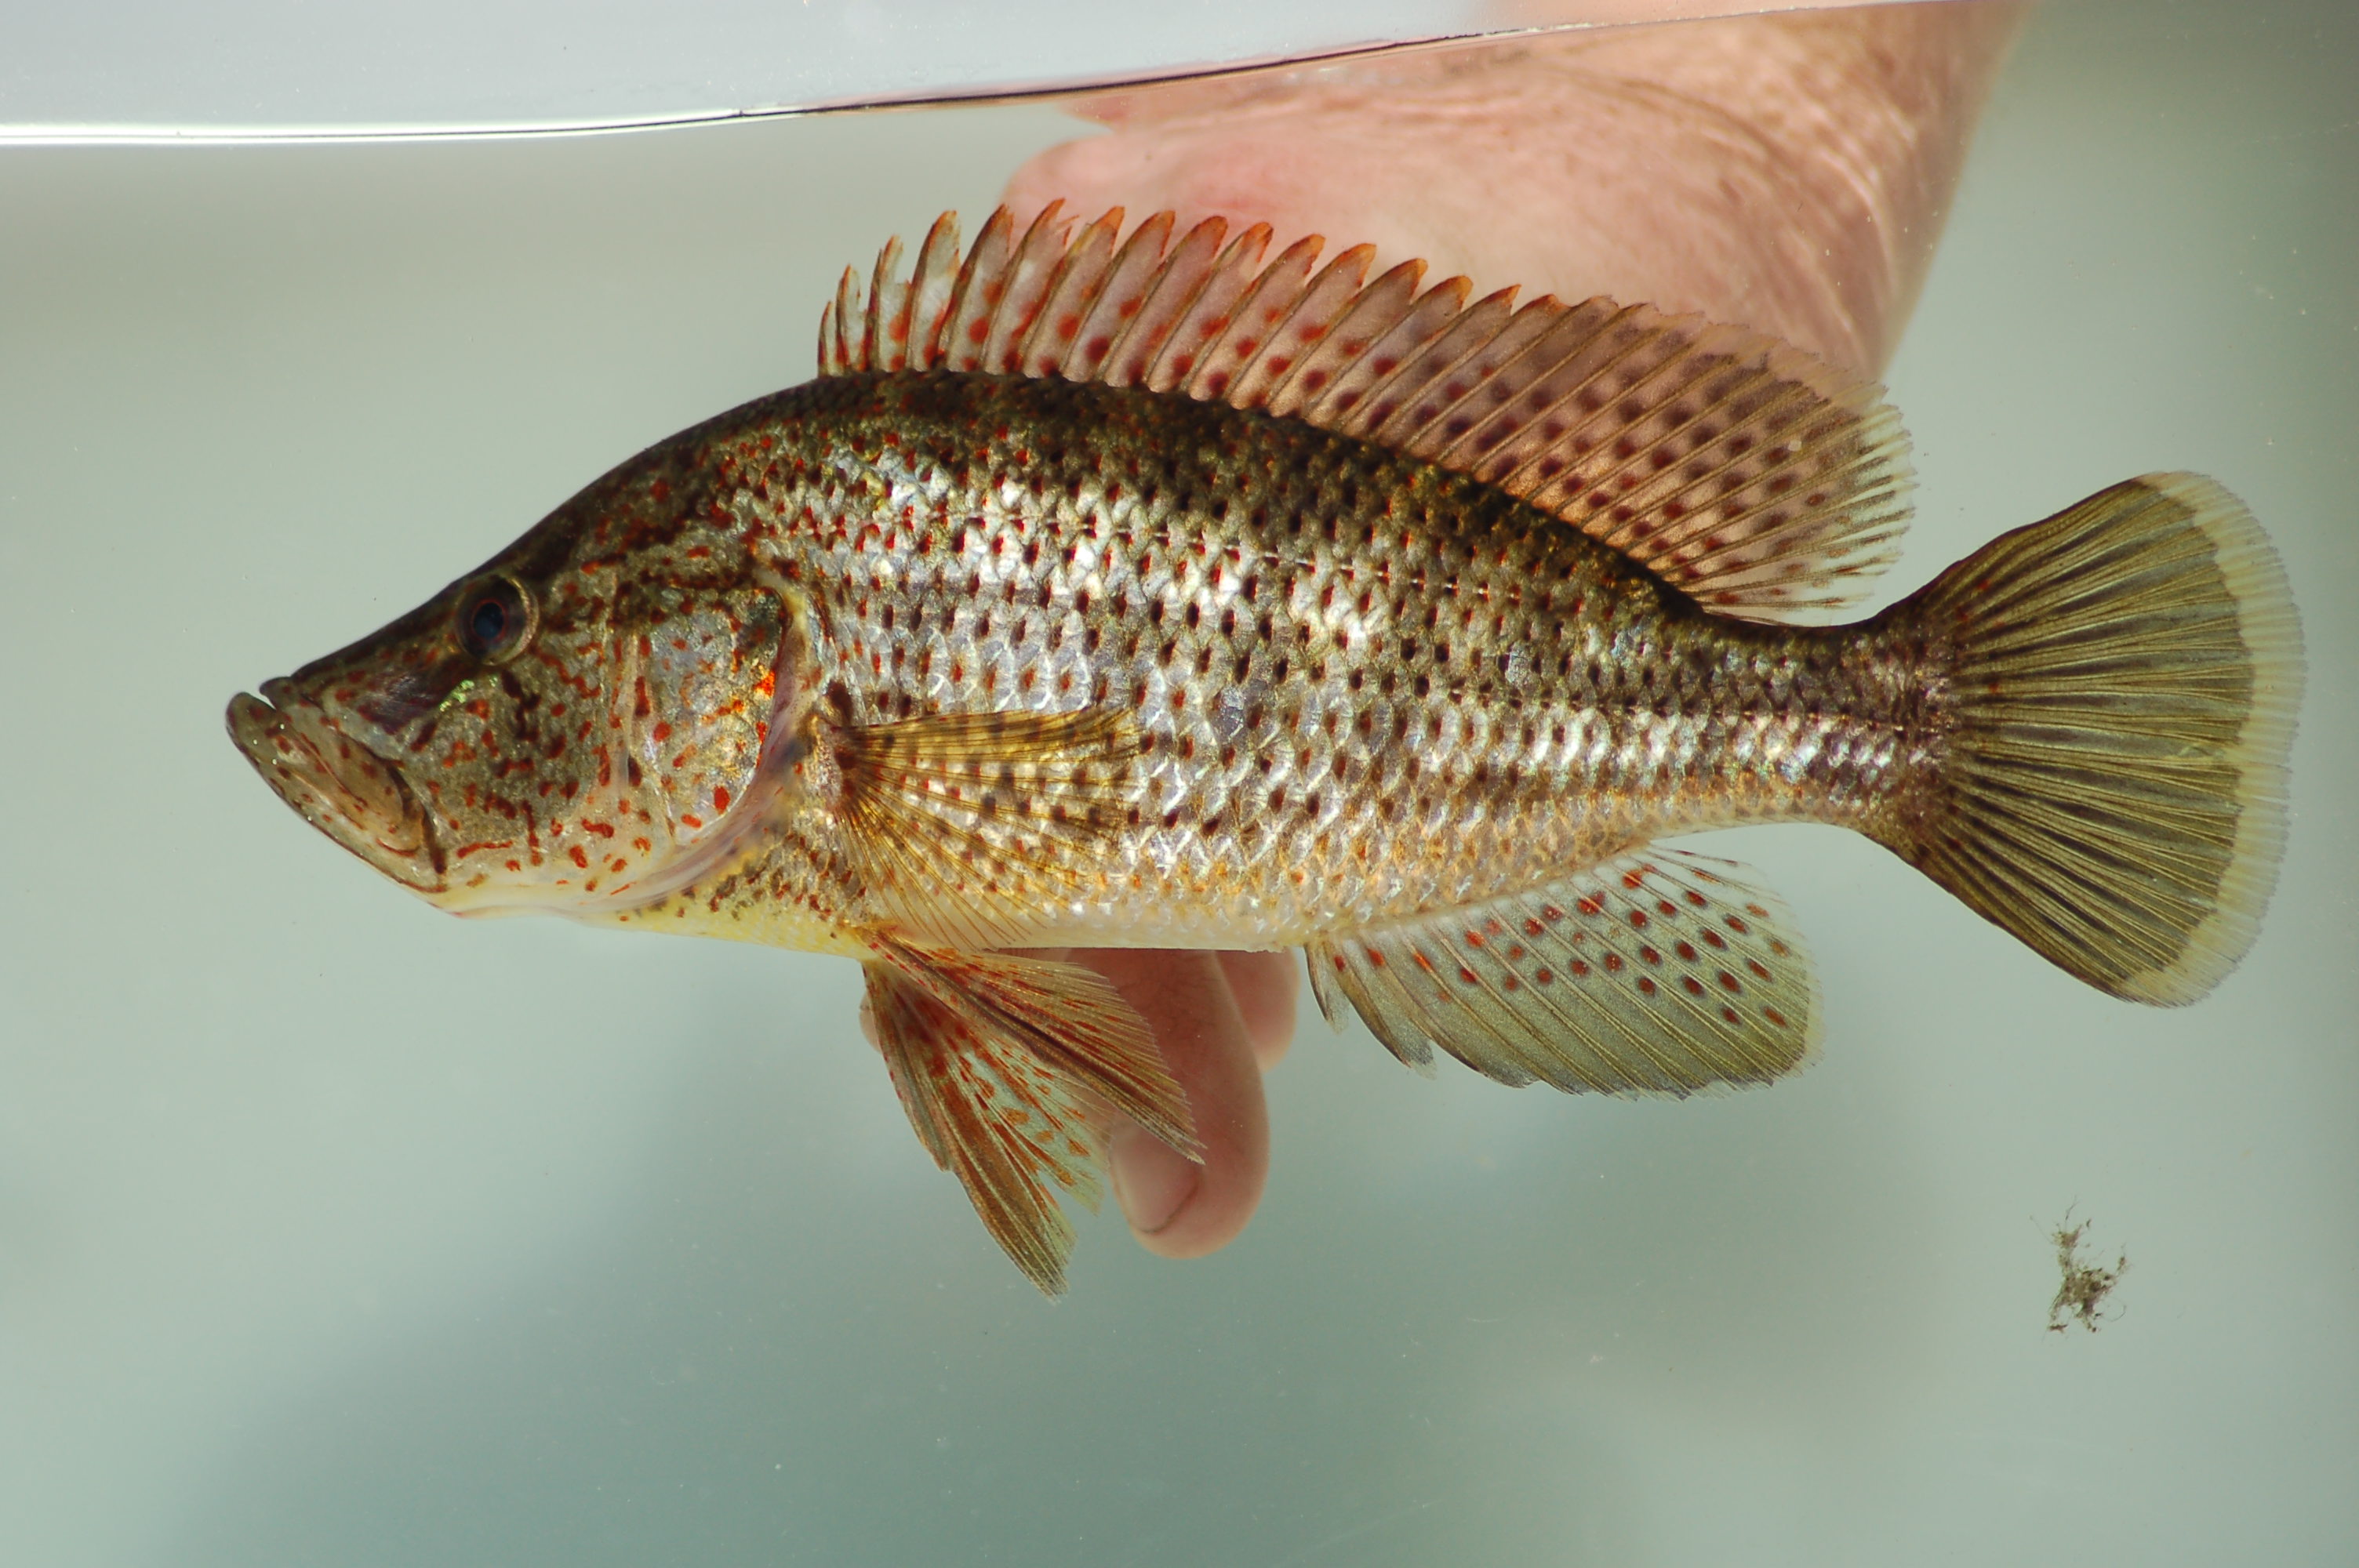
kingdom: Animalia
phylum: Chordata
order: Perciformes
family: Cichlidae
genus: Serranochromis
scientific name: Serranochromis angusticeps
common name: Thinface largemouth
